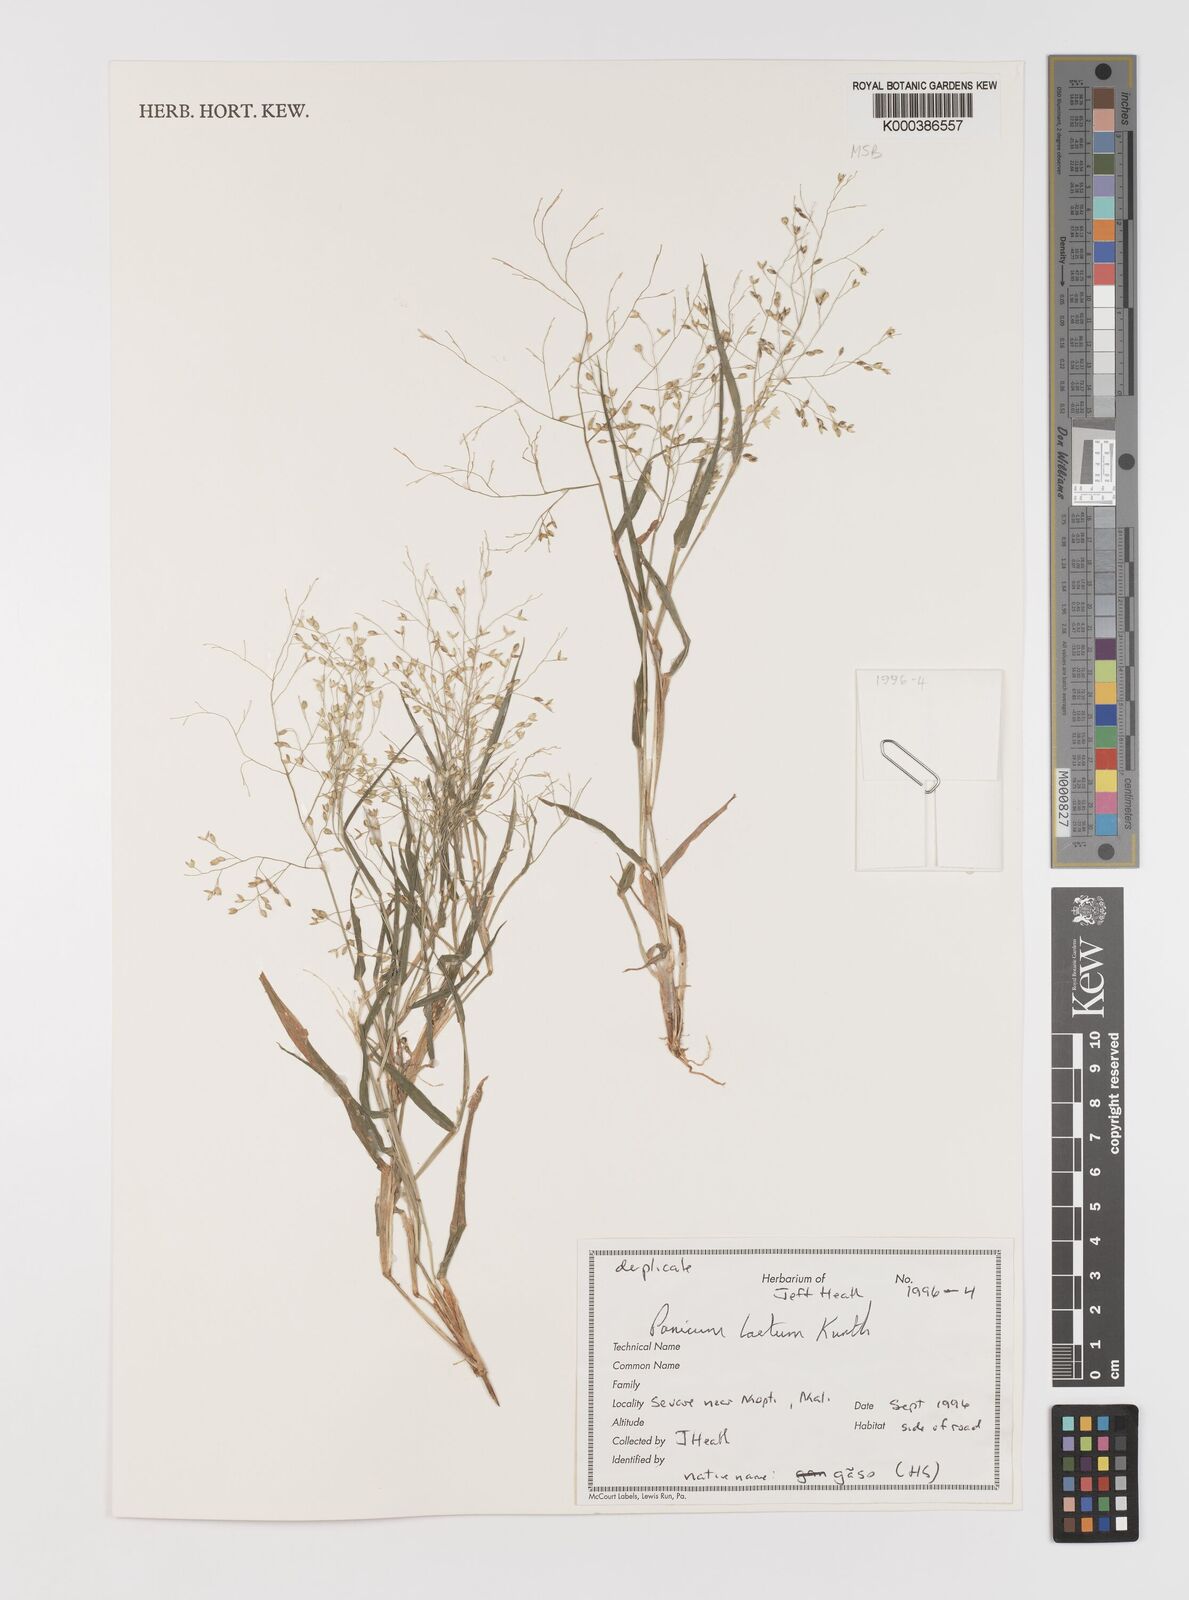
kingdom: Plantae
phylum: Tracheophyta
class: Liliopsida
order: Poales
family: Poaceae
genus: Panicum
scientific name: Panicum laetum
